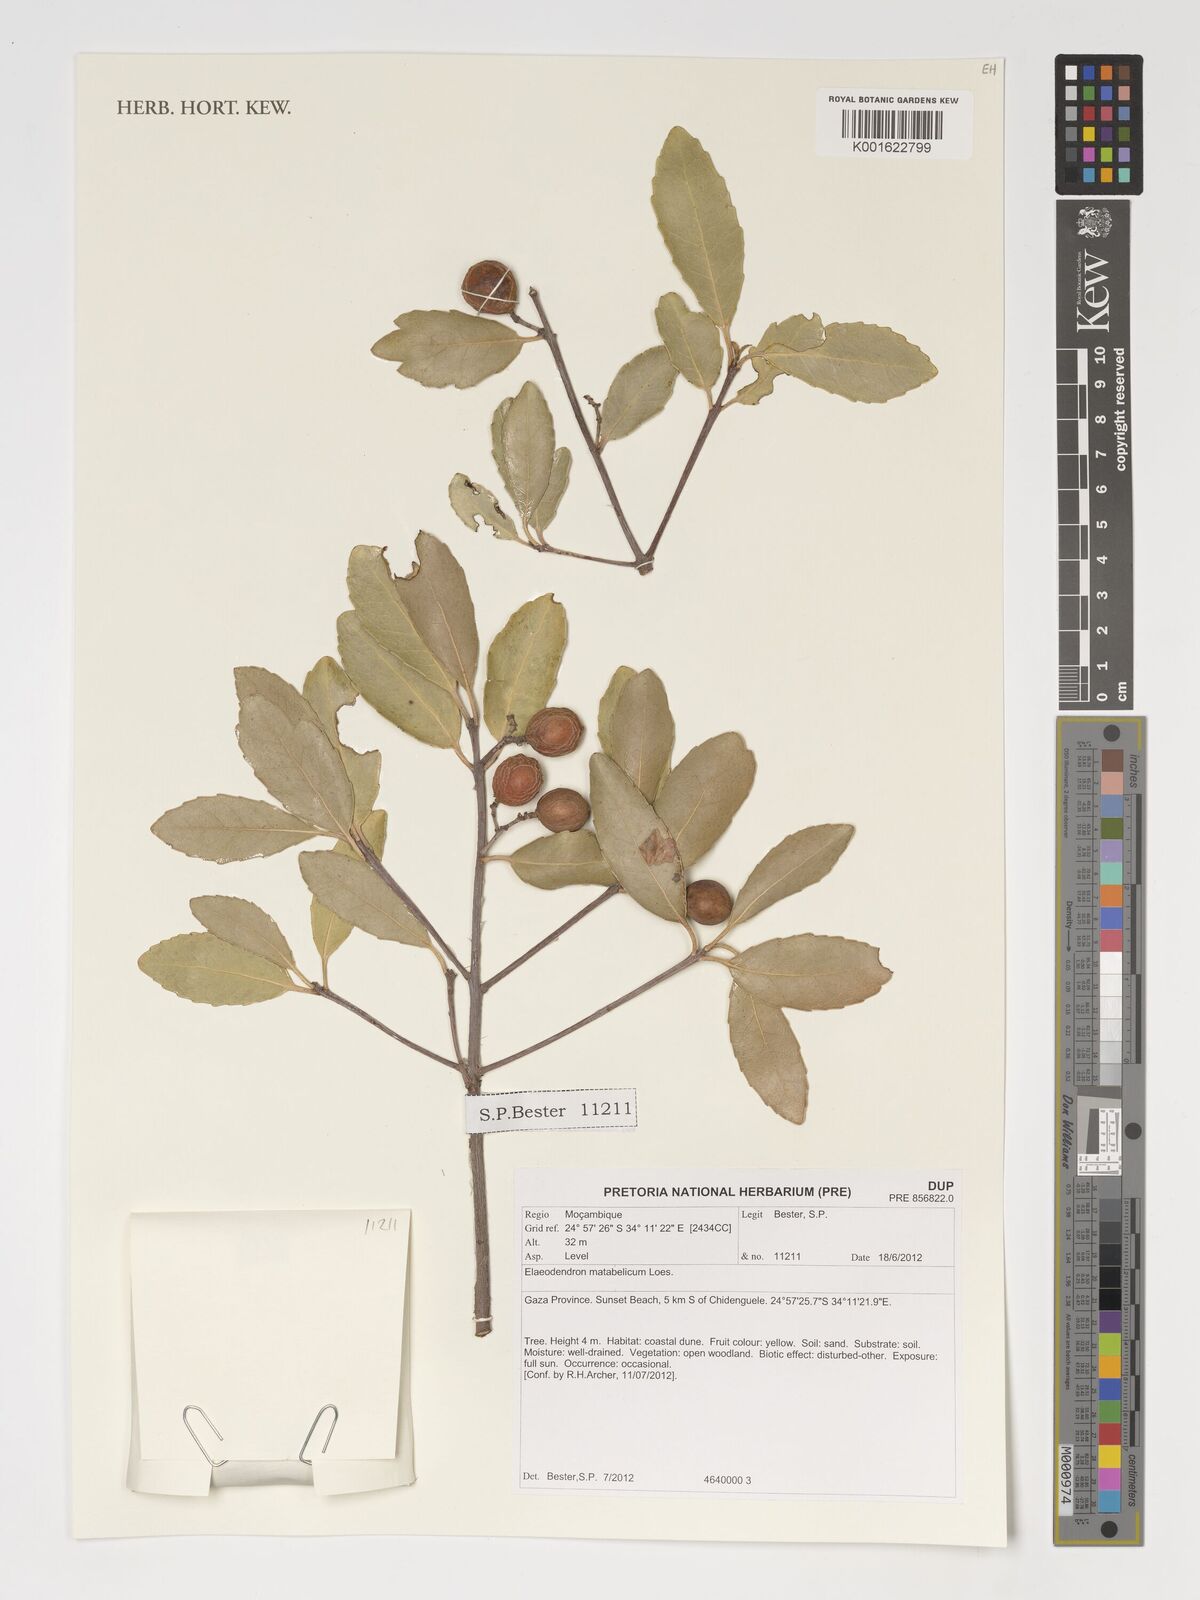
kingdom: Plantae
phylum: Tracheophyta
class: Magnoliopsida
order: Celastrales
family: Celastraceae
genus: Elaeodendron
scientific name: Elaeodendron matabelicum
